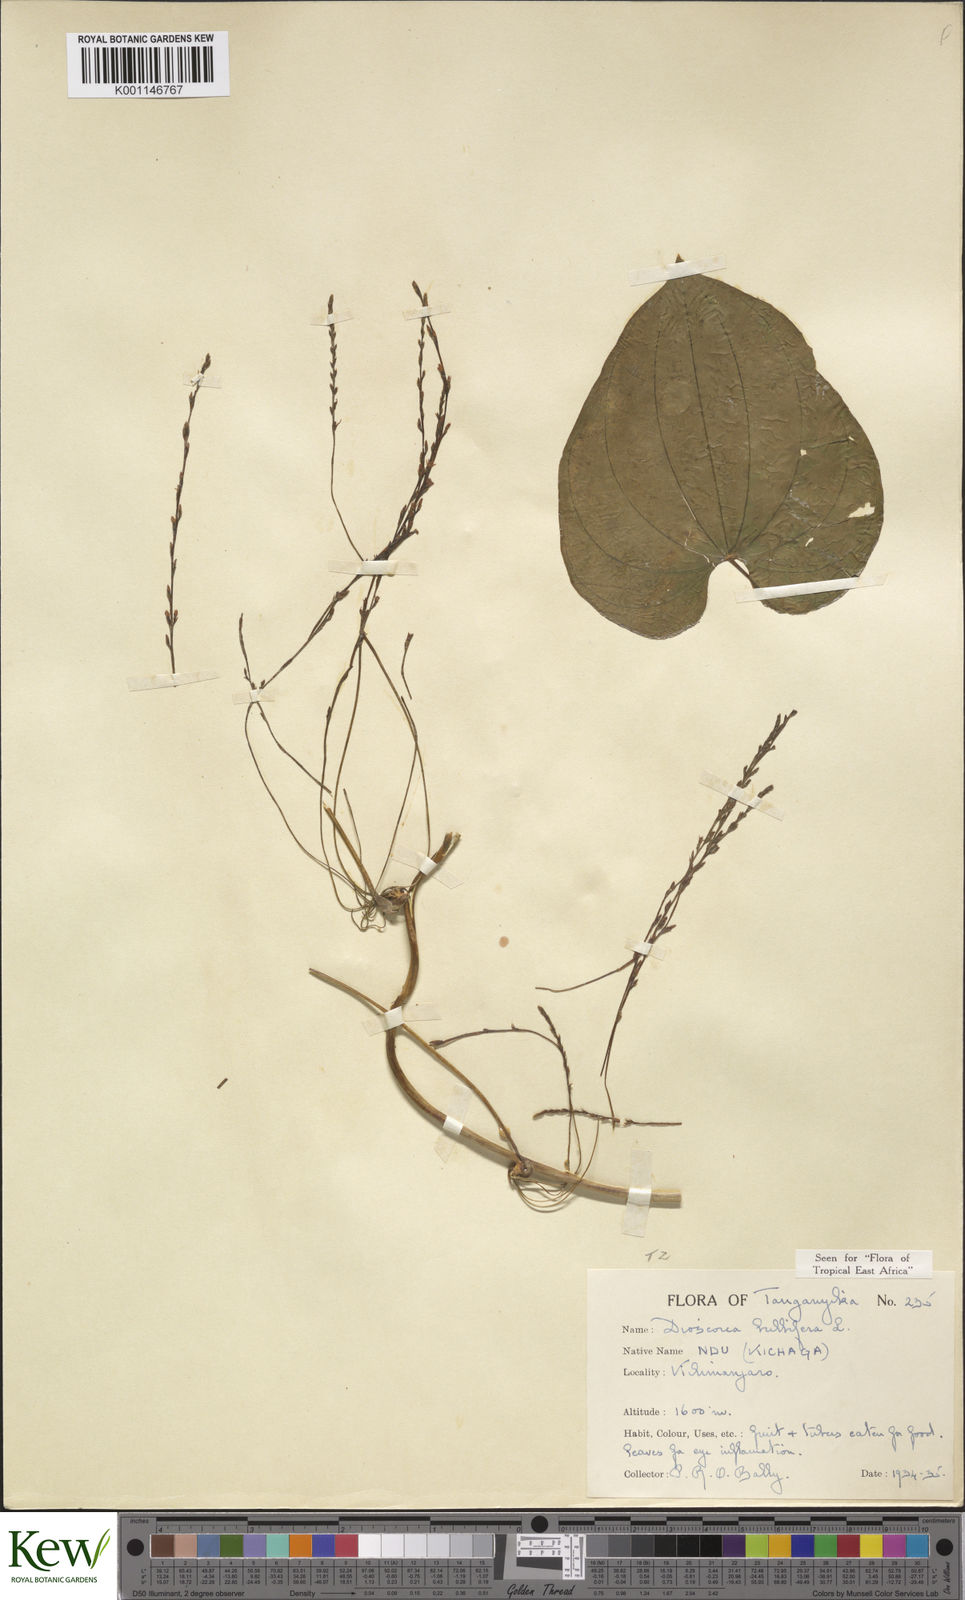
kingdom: Plantae
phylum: Tracheophyta
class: Liliopsida
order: Dioscoreales
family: Dioscoreaceae
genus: Dioscorea
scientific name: Dioscorea bulbifera
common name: Air yam
